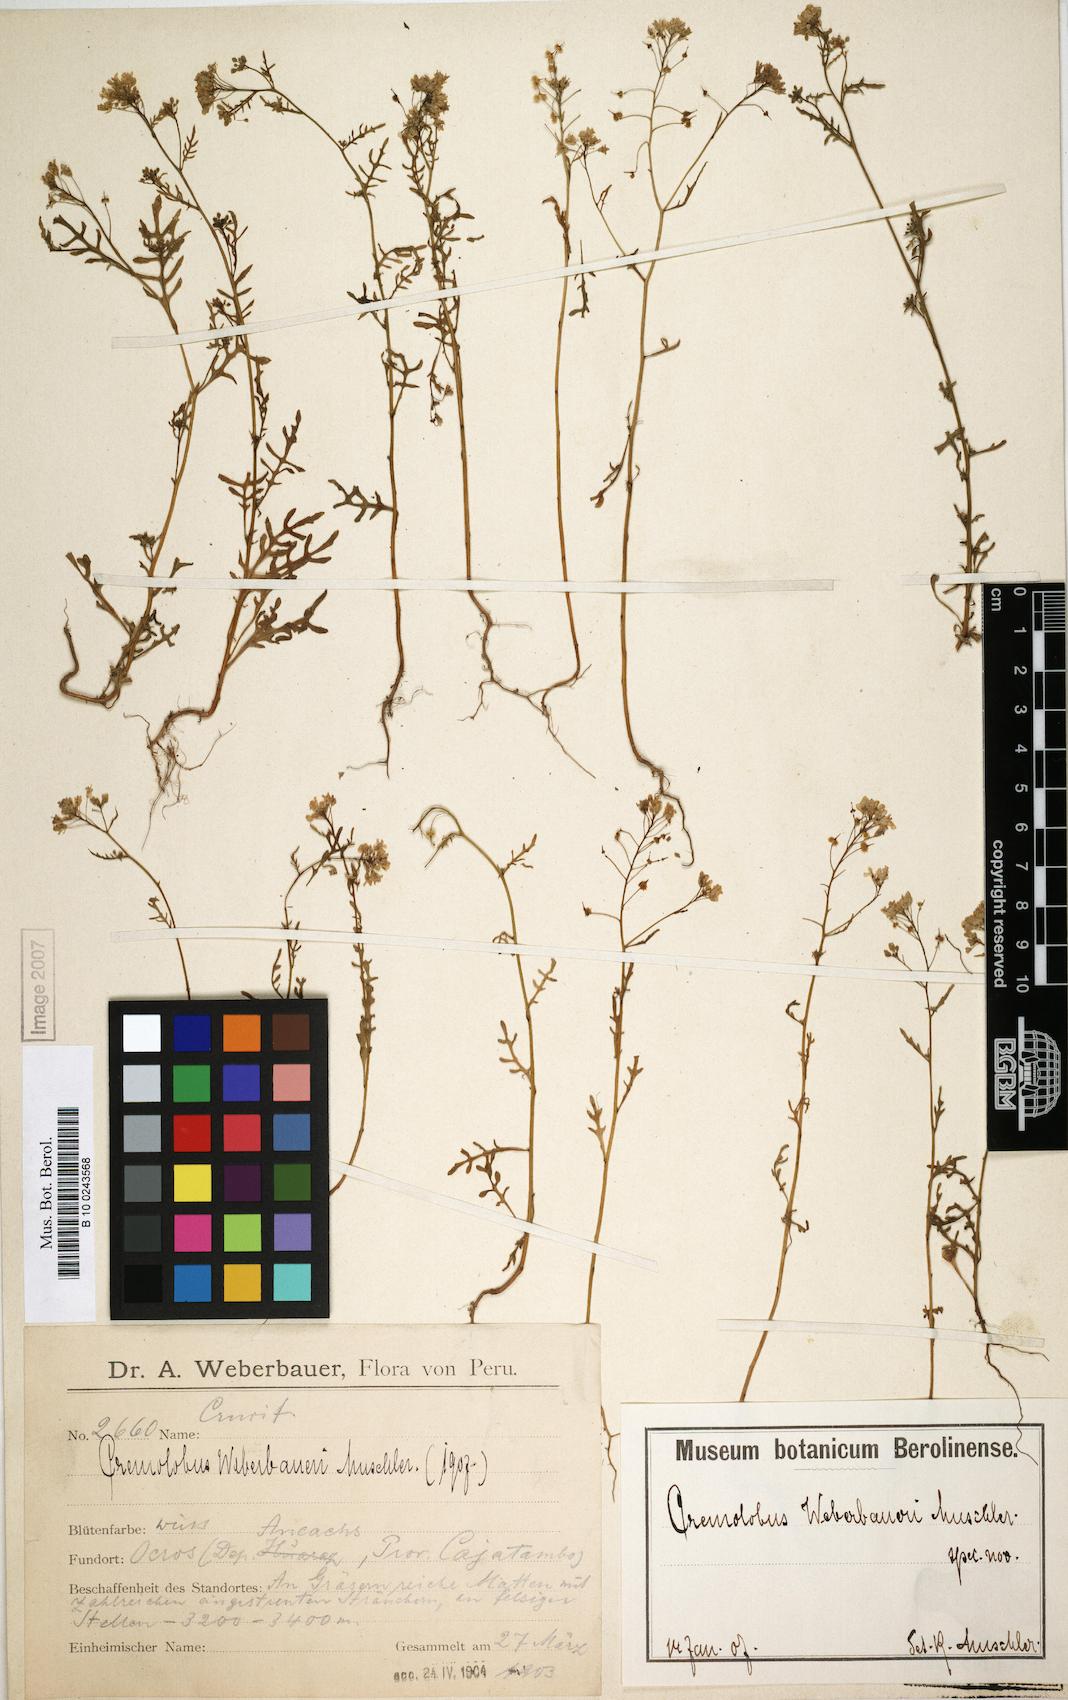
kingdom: Plantae
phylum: Tracheophyta
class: Magnoliopsida
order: Brassicales
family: Brassicaceae
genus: Cremolobus
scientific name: Cremolobus chilensis
